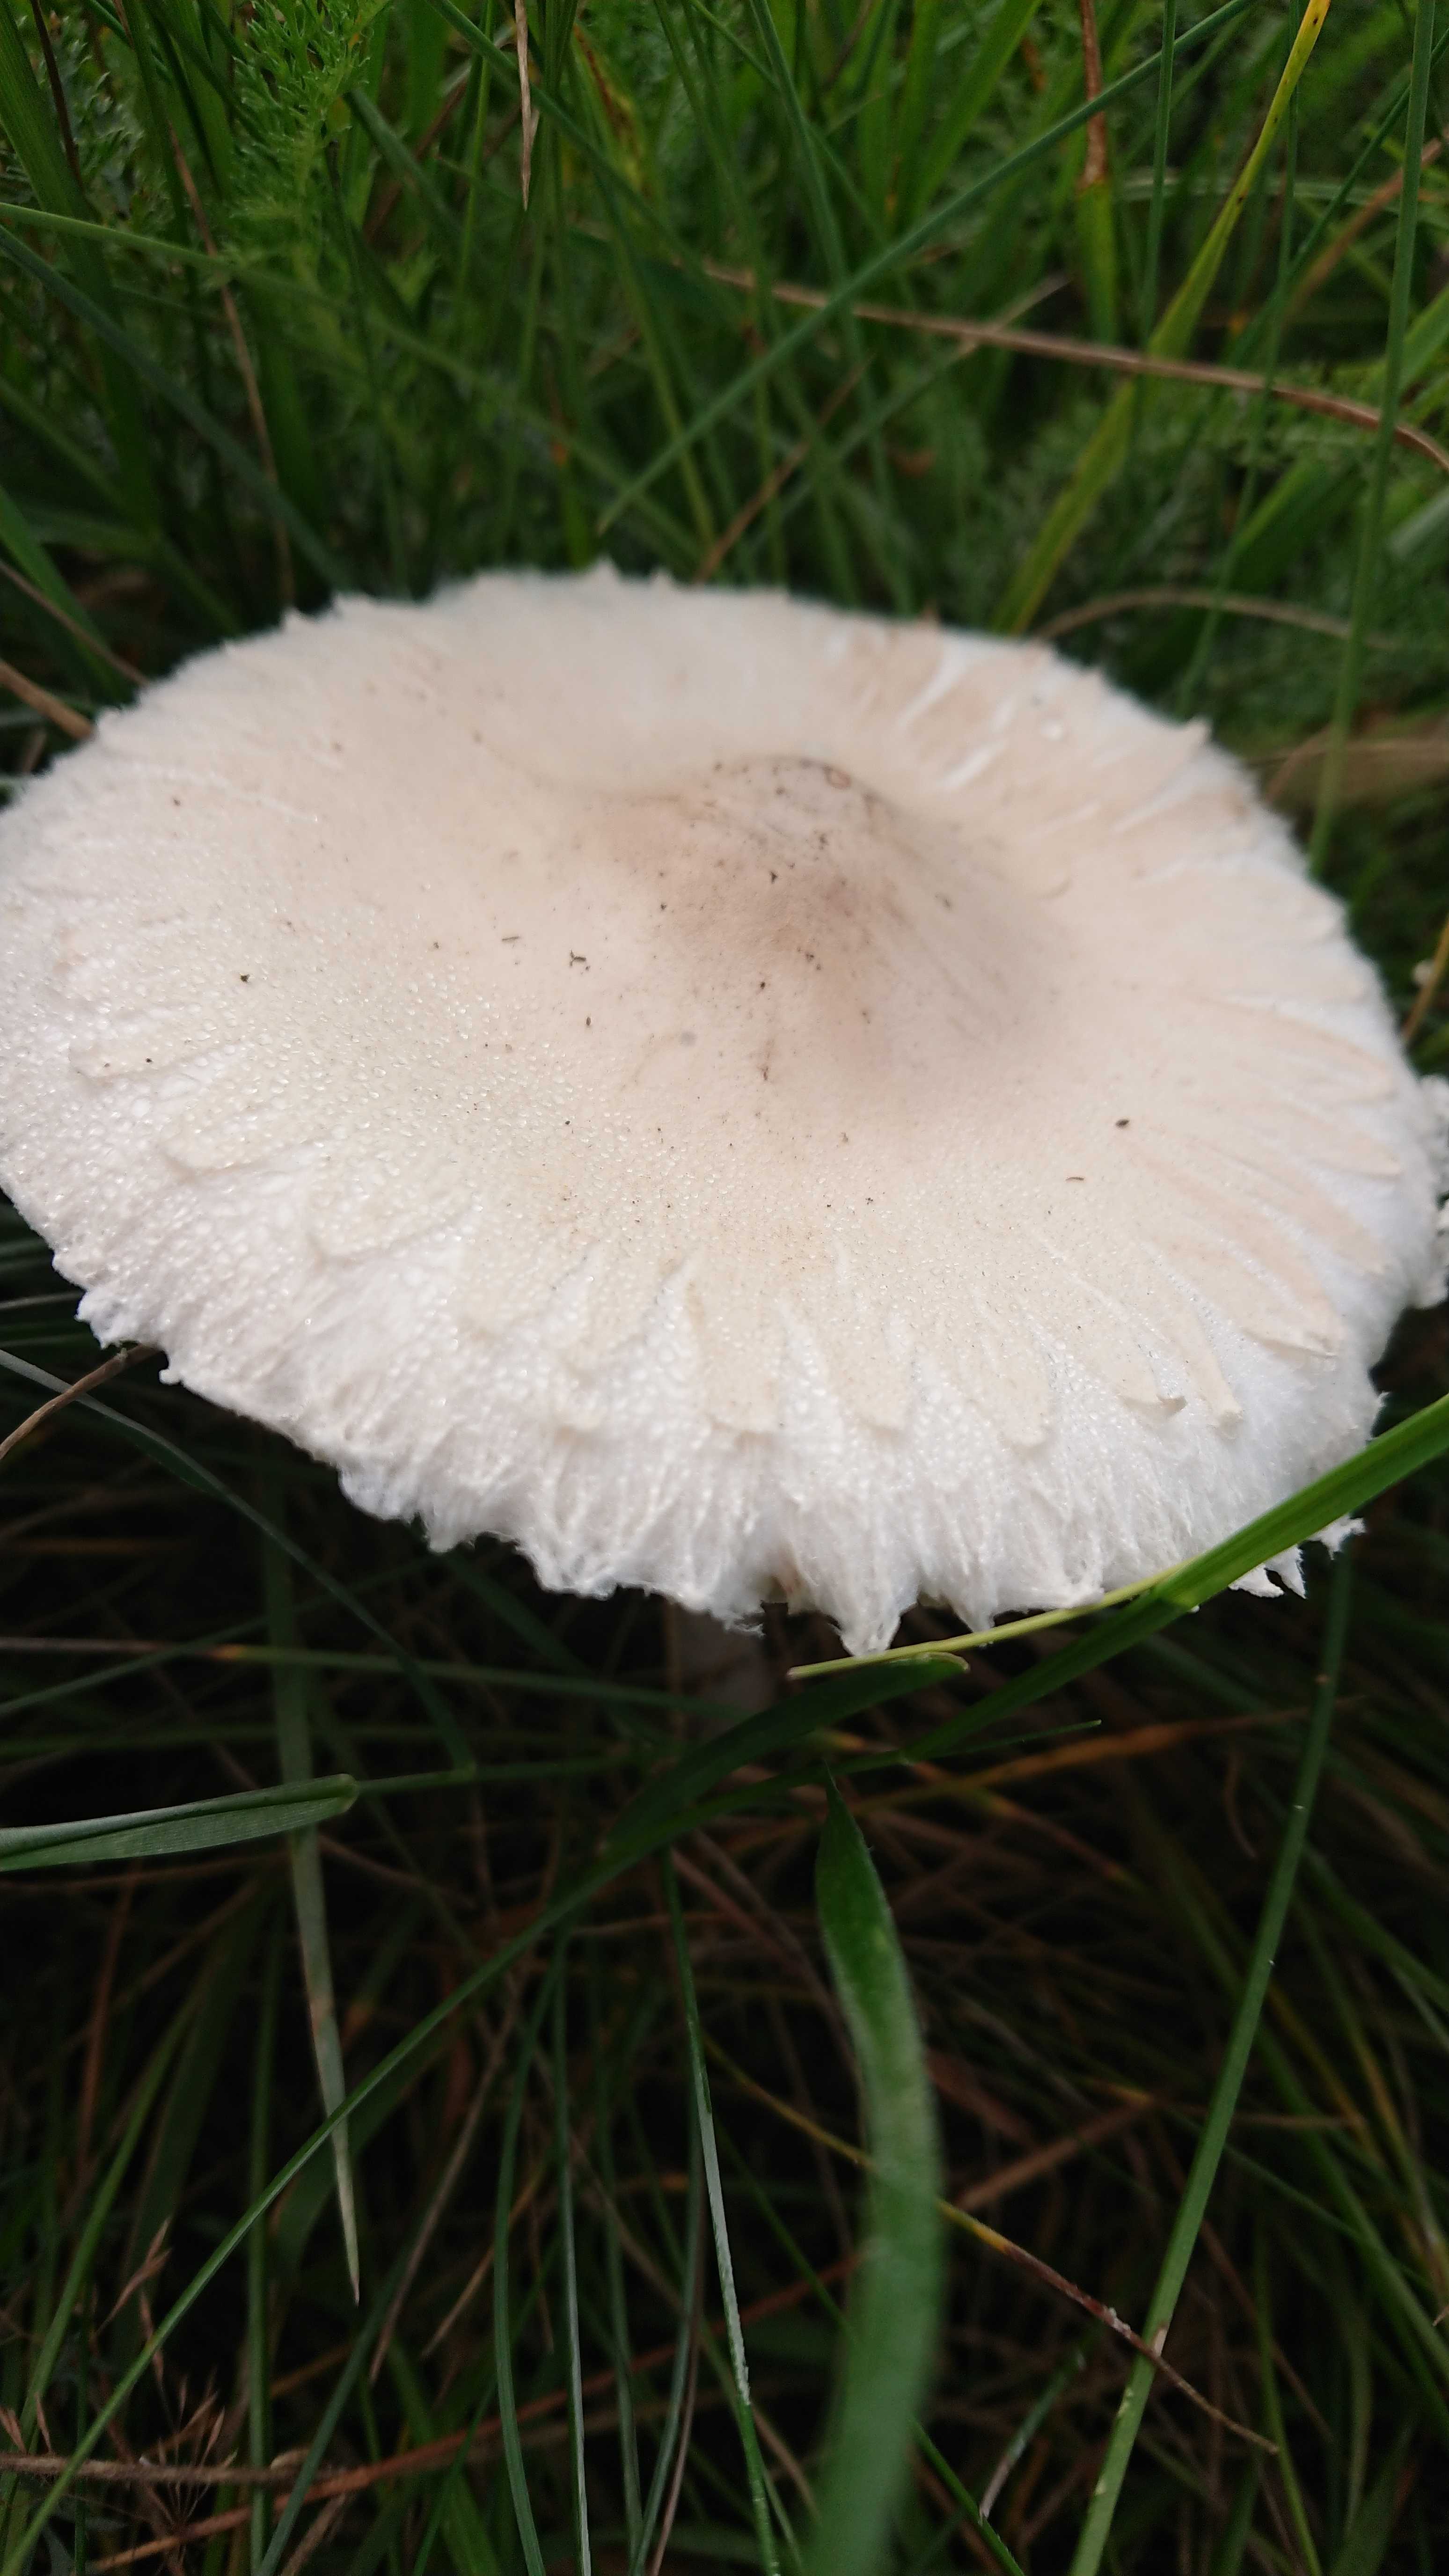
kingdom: Fungi
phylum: Basidiomycota
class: Agaricomycetes
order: Agaricales
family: Agaricaceae
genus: Macrolepiota
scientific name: Macrolepiota excoriata
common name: mark-kæmpeparasolhat
